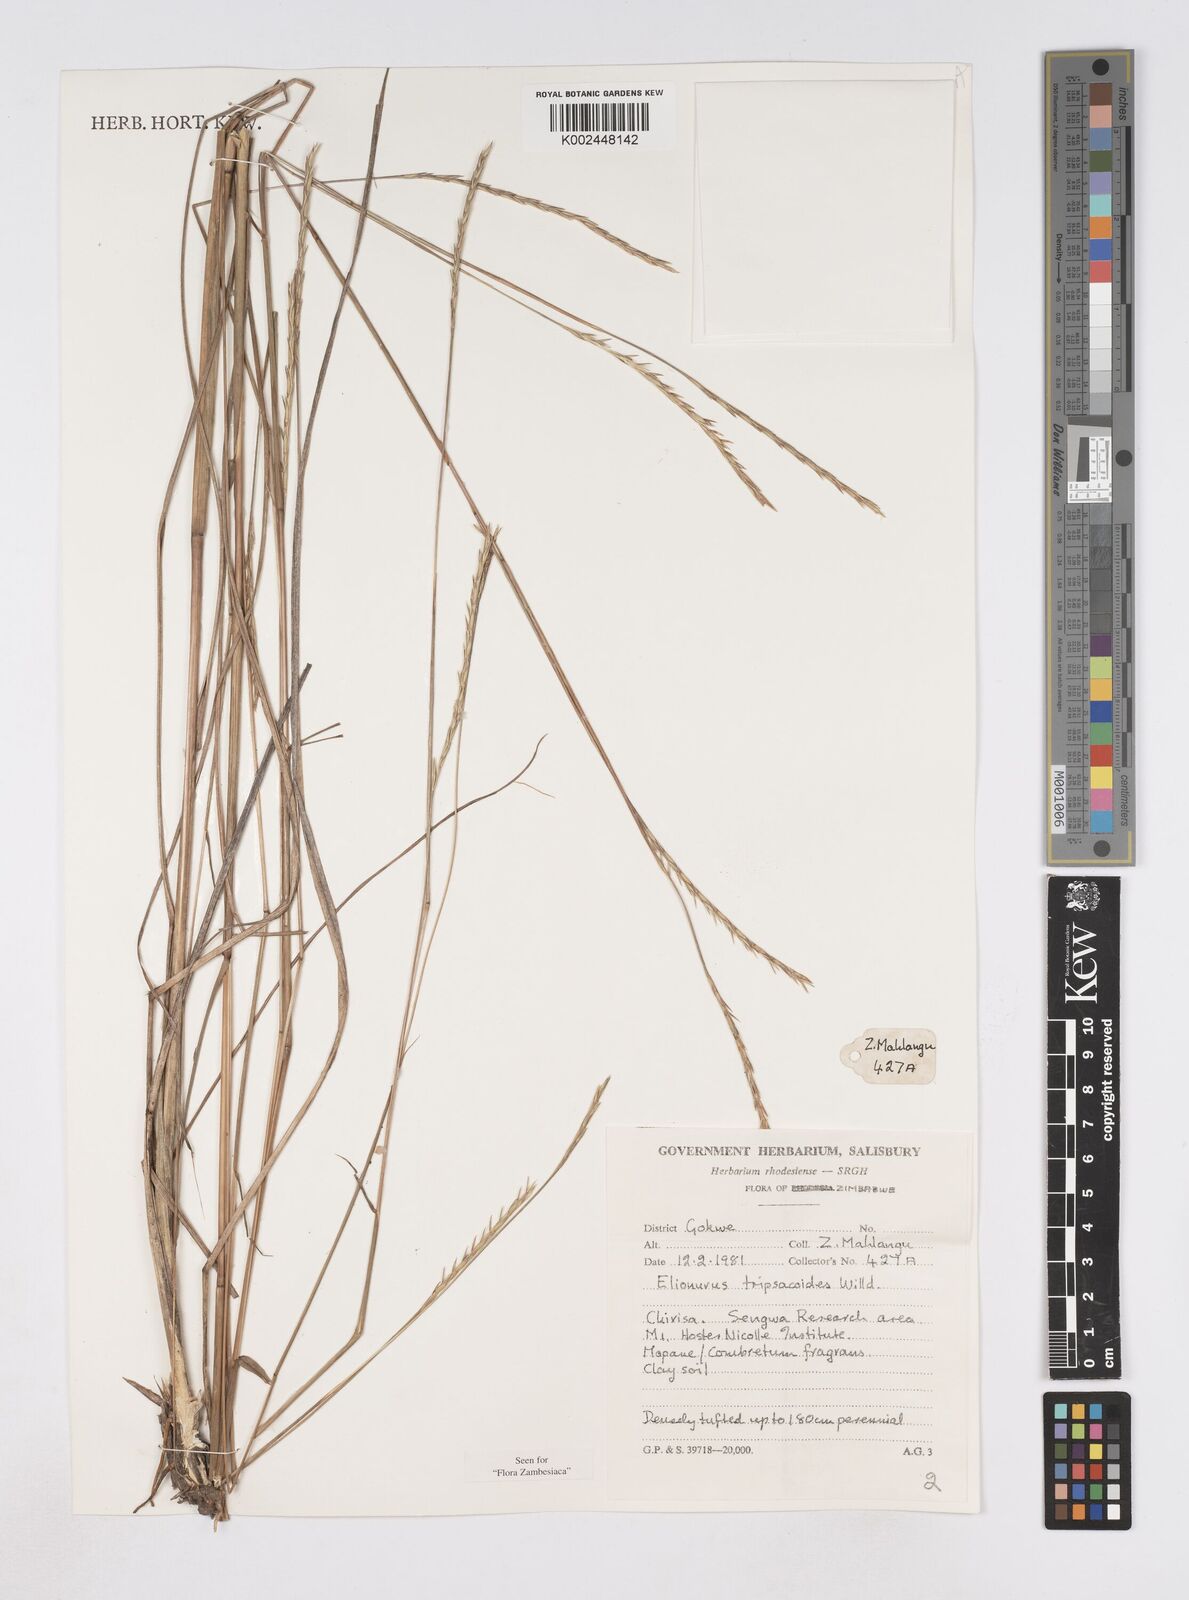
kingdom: Plantae
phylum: Tracheophyta
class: Liliopsida
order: Poales
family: Poaceae
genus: Elionurus
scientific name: Elionurus tripsacoides
